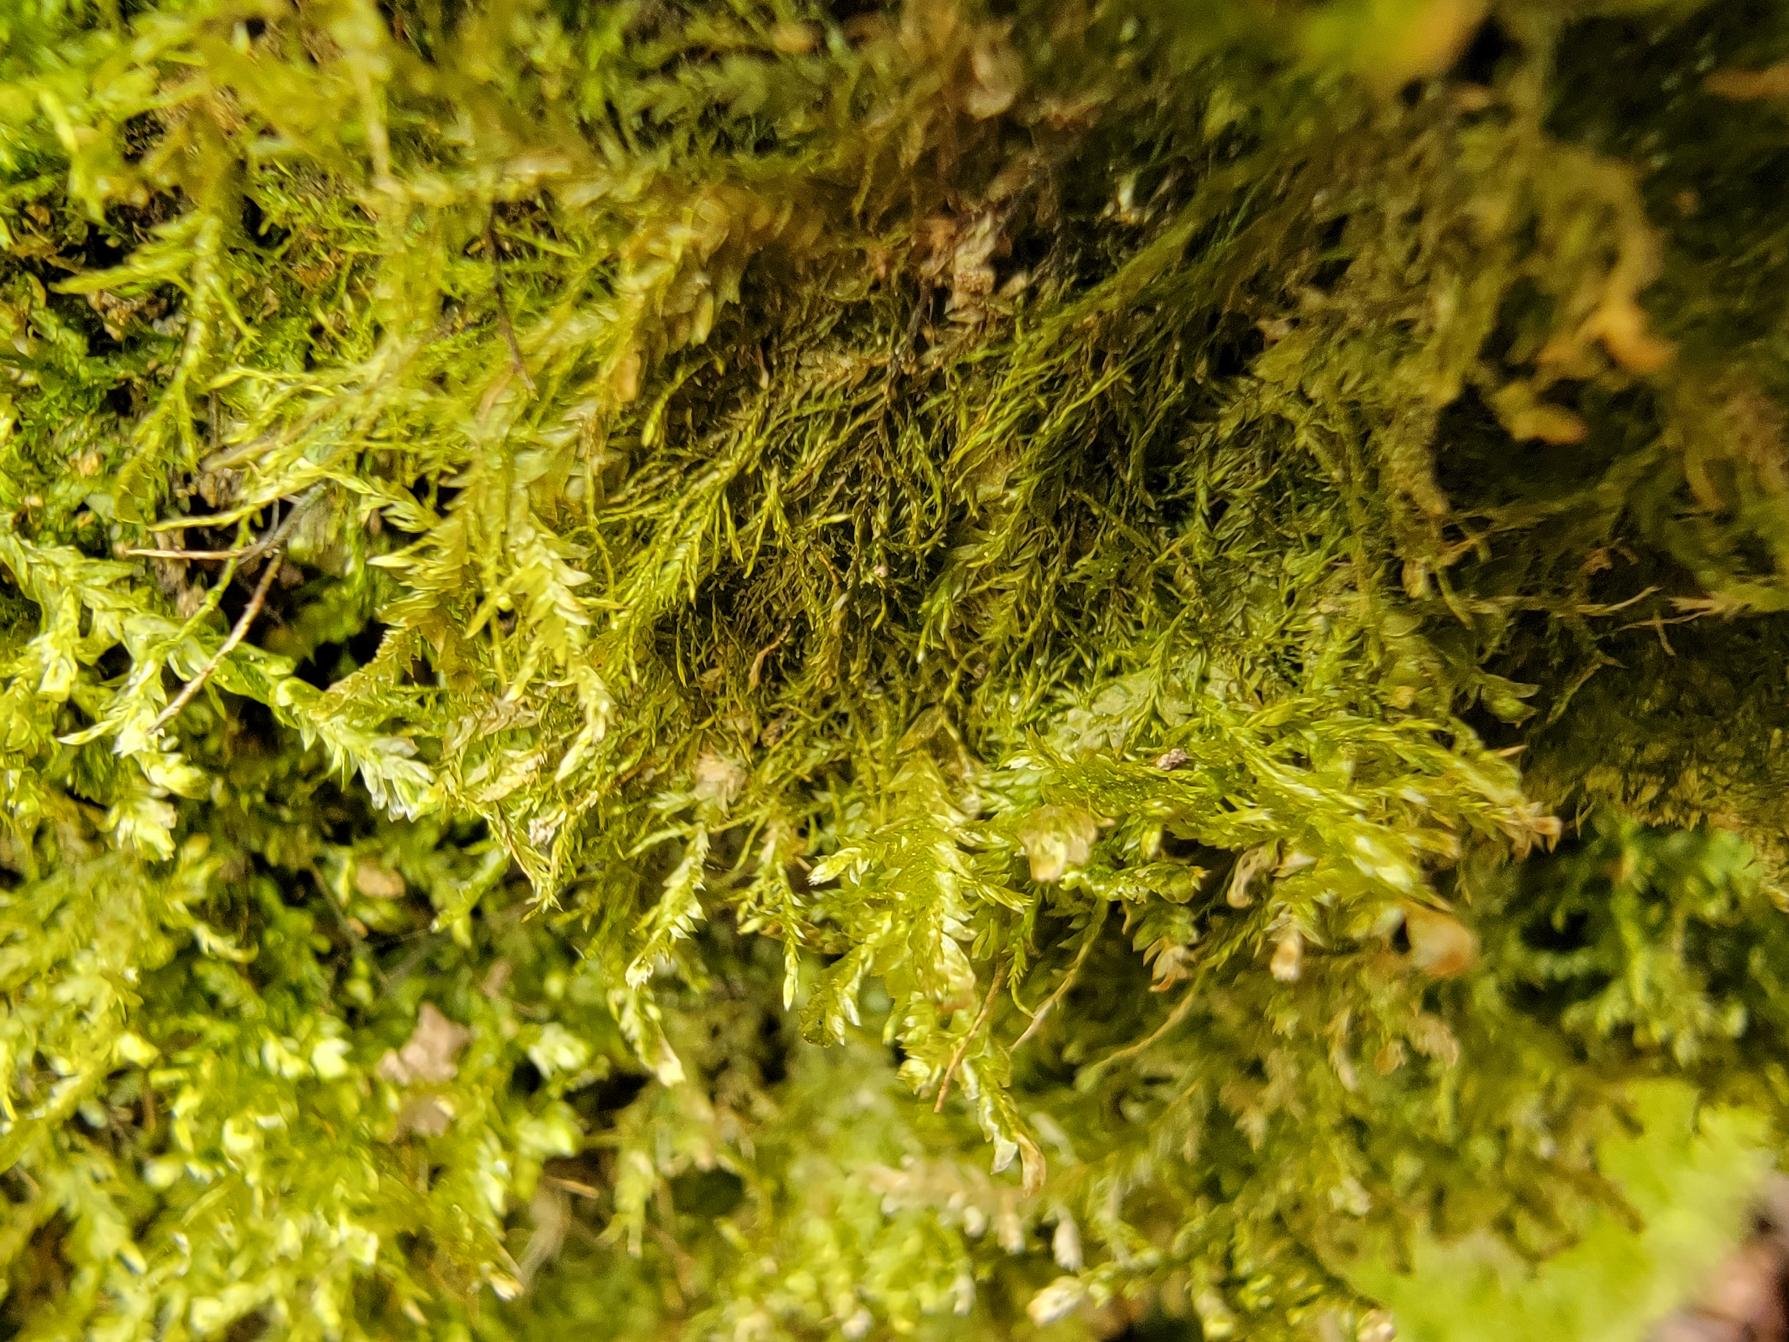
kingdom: Plantae
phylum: Bryophyta
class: Bryopsida
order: Hypnales
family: Neckeraceae
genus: Alleniella
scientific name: Alleniella complanata
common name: Almindelig fladmos
